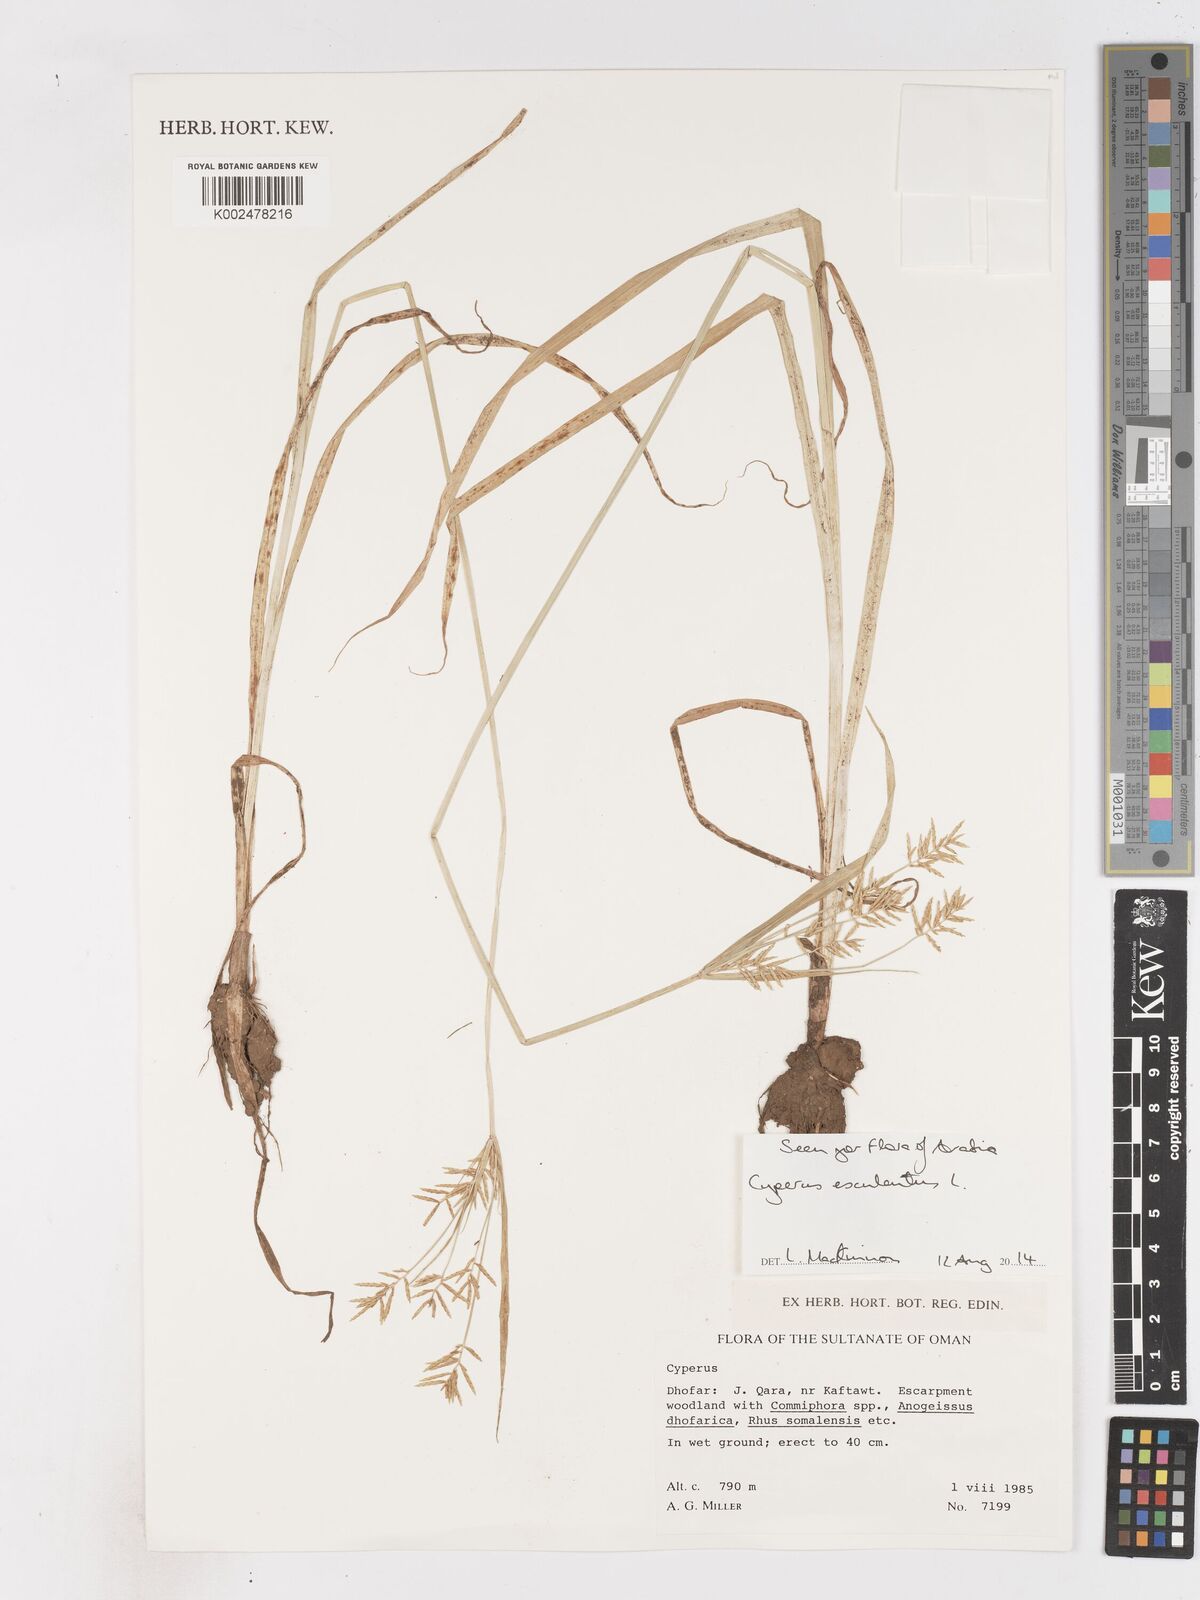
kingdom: Plantae
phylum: Tracheophyta
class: Liliopsida
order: Poales
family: Cyperaceae
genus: Cyperus
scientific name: Cyperus esculentus
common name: Yellow nutsedge
